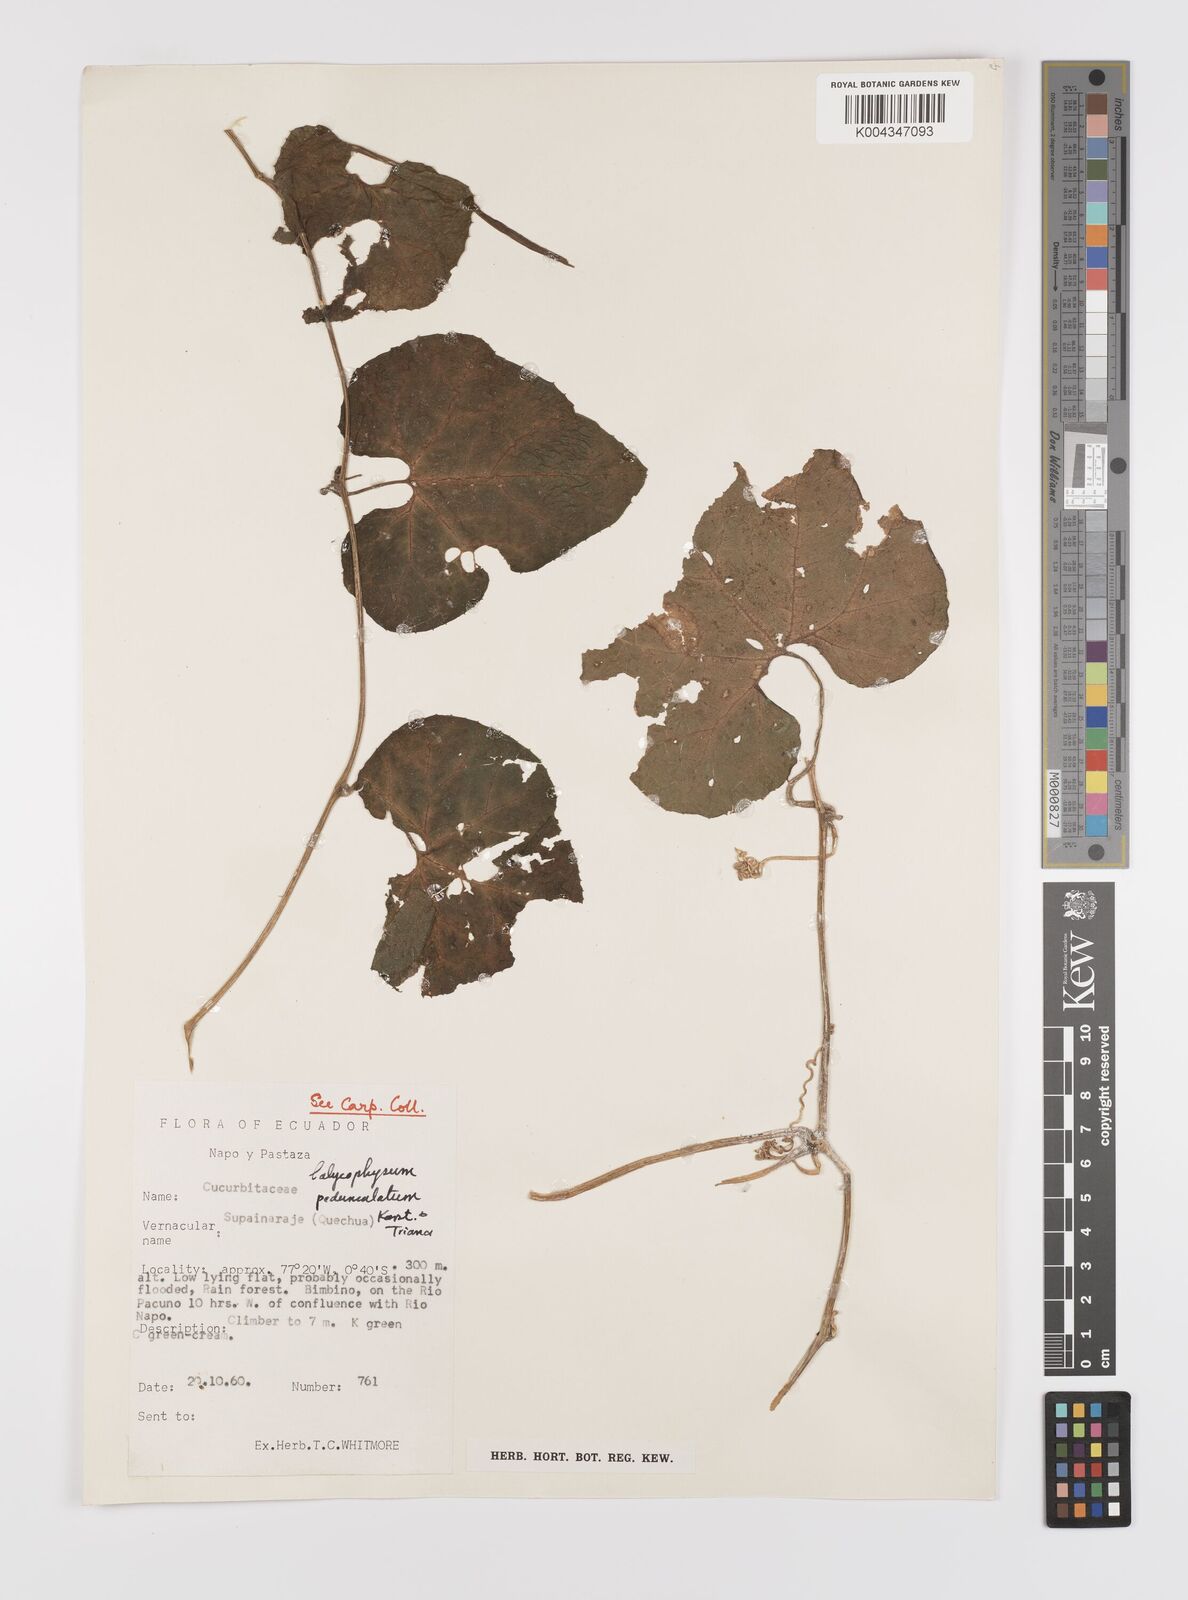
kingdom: Plantae
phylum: Tracheophyta
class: Magnoliopsida
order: Cucurbitales
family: Cucurbitaceae
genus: Calycophysum
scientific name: Calycophysum pedunculatum
